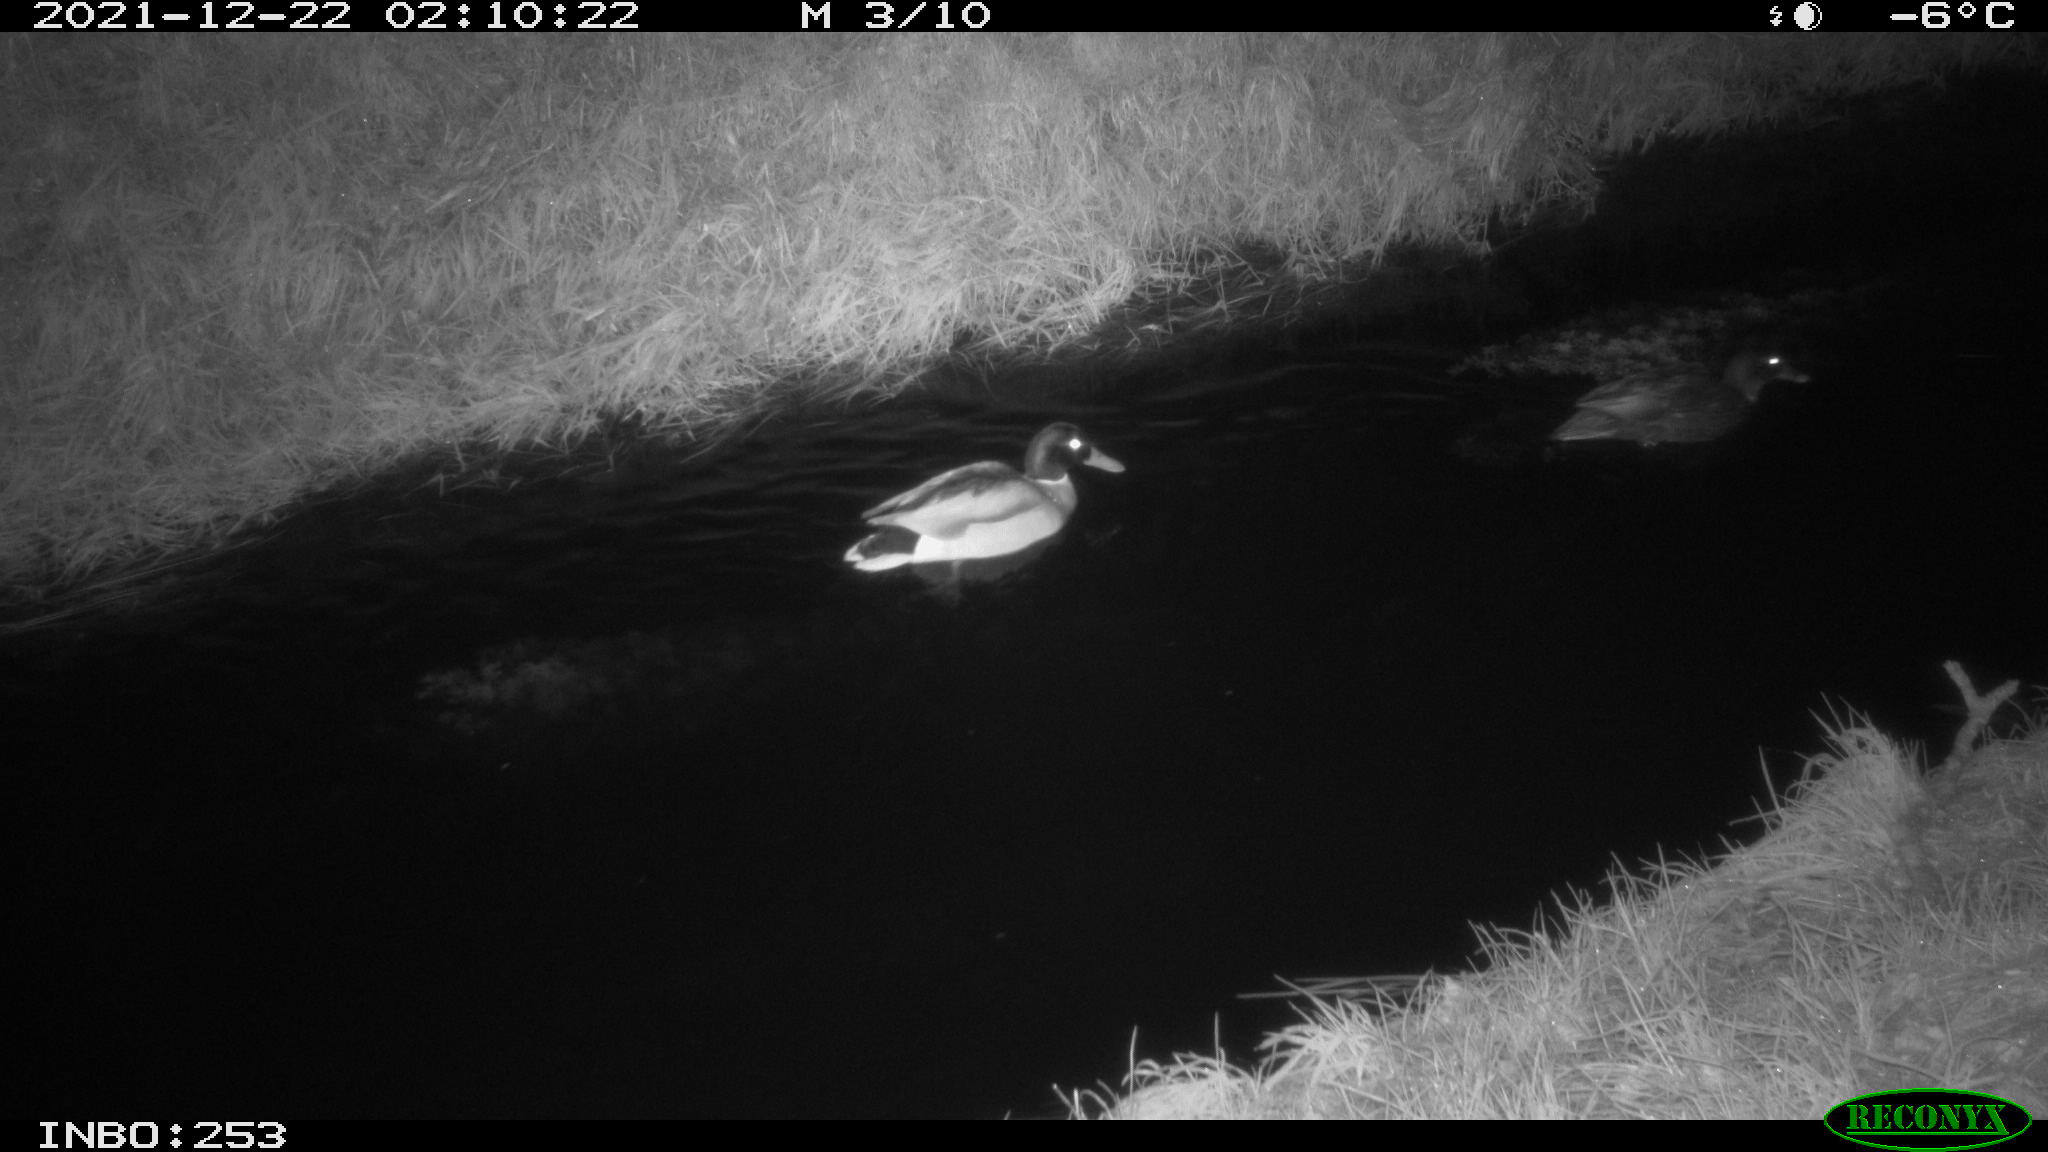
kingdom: Animalia
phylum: Chordata
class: Aves
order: Anseriformes
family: Anatidae
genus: Anas
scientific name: Anas platyrhynchos
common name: Mallard
